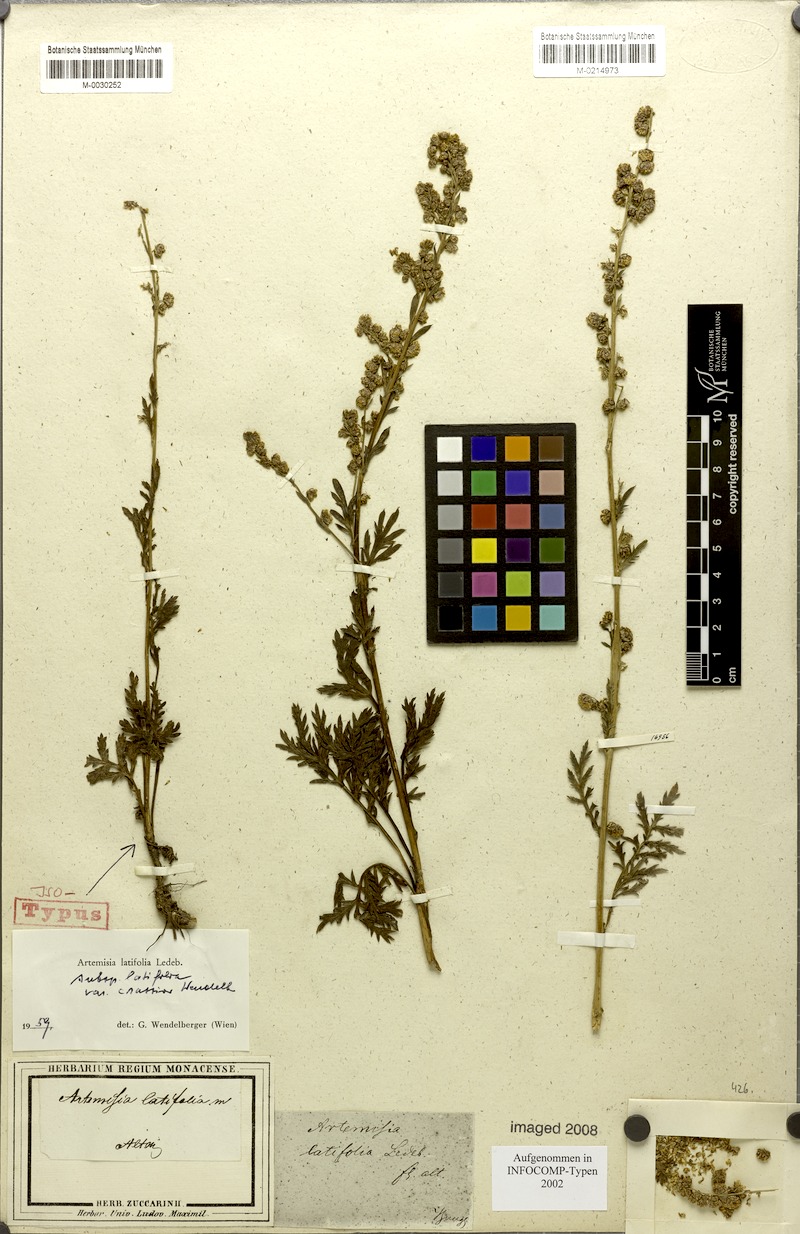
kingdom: Plantae
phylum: Tracheophyta
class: Magnoliopsida
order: Asterales
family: Asteraceae
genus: Artemisia
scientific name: Artemisia latifolia
